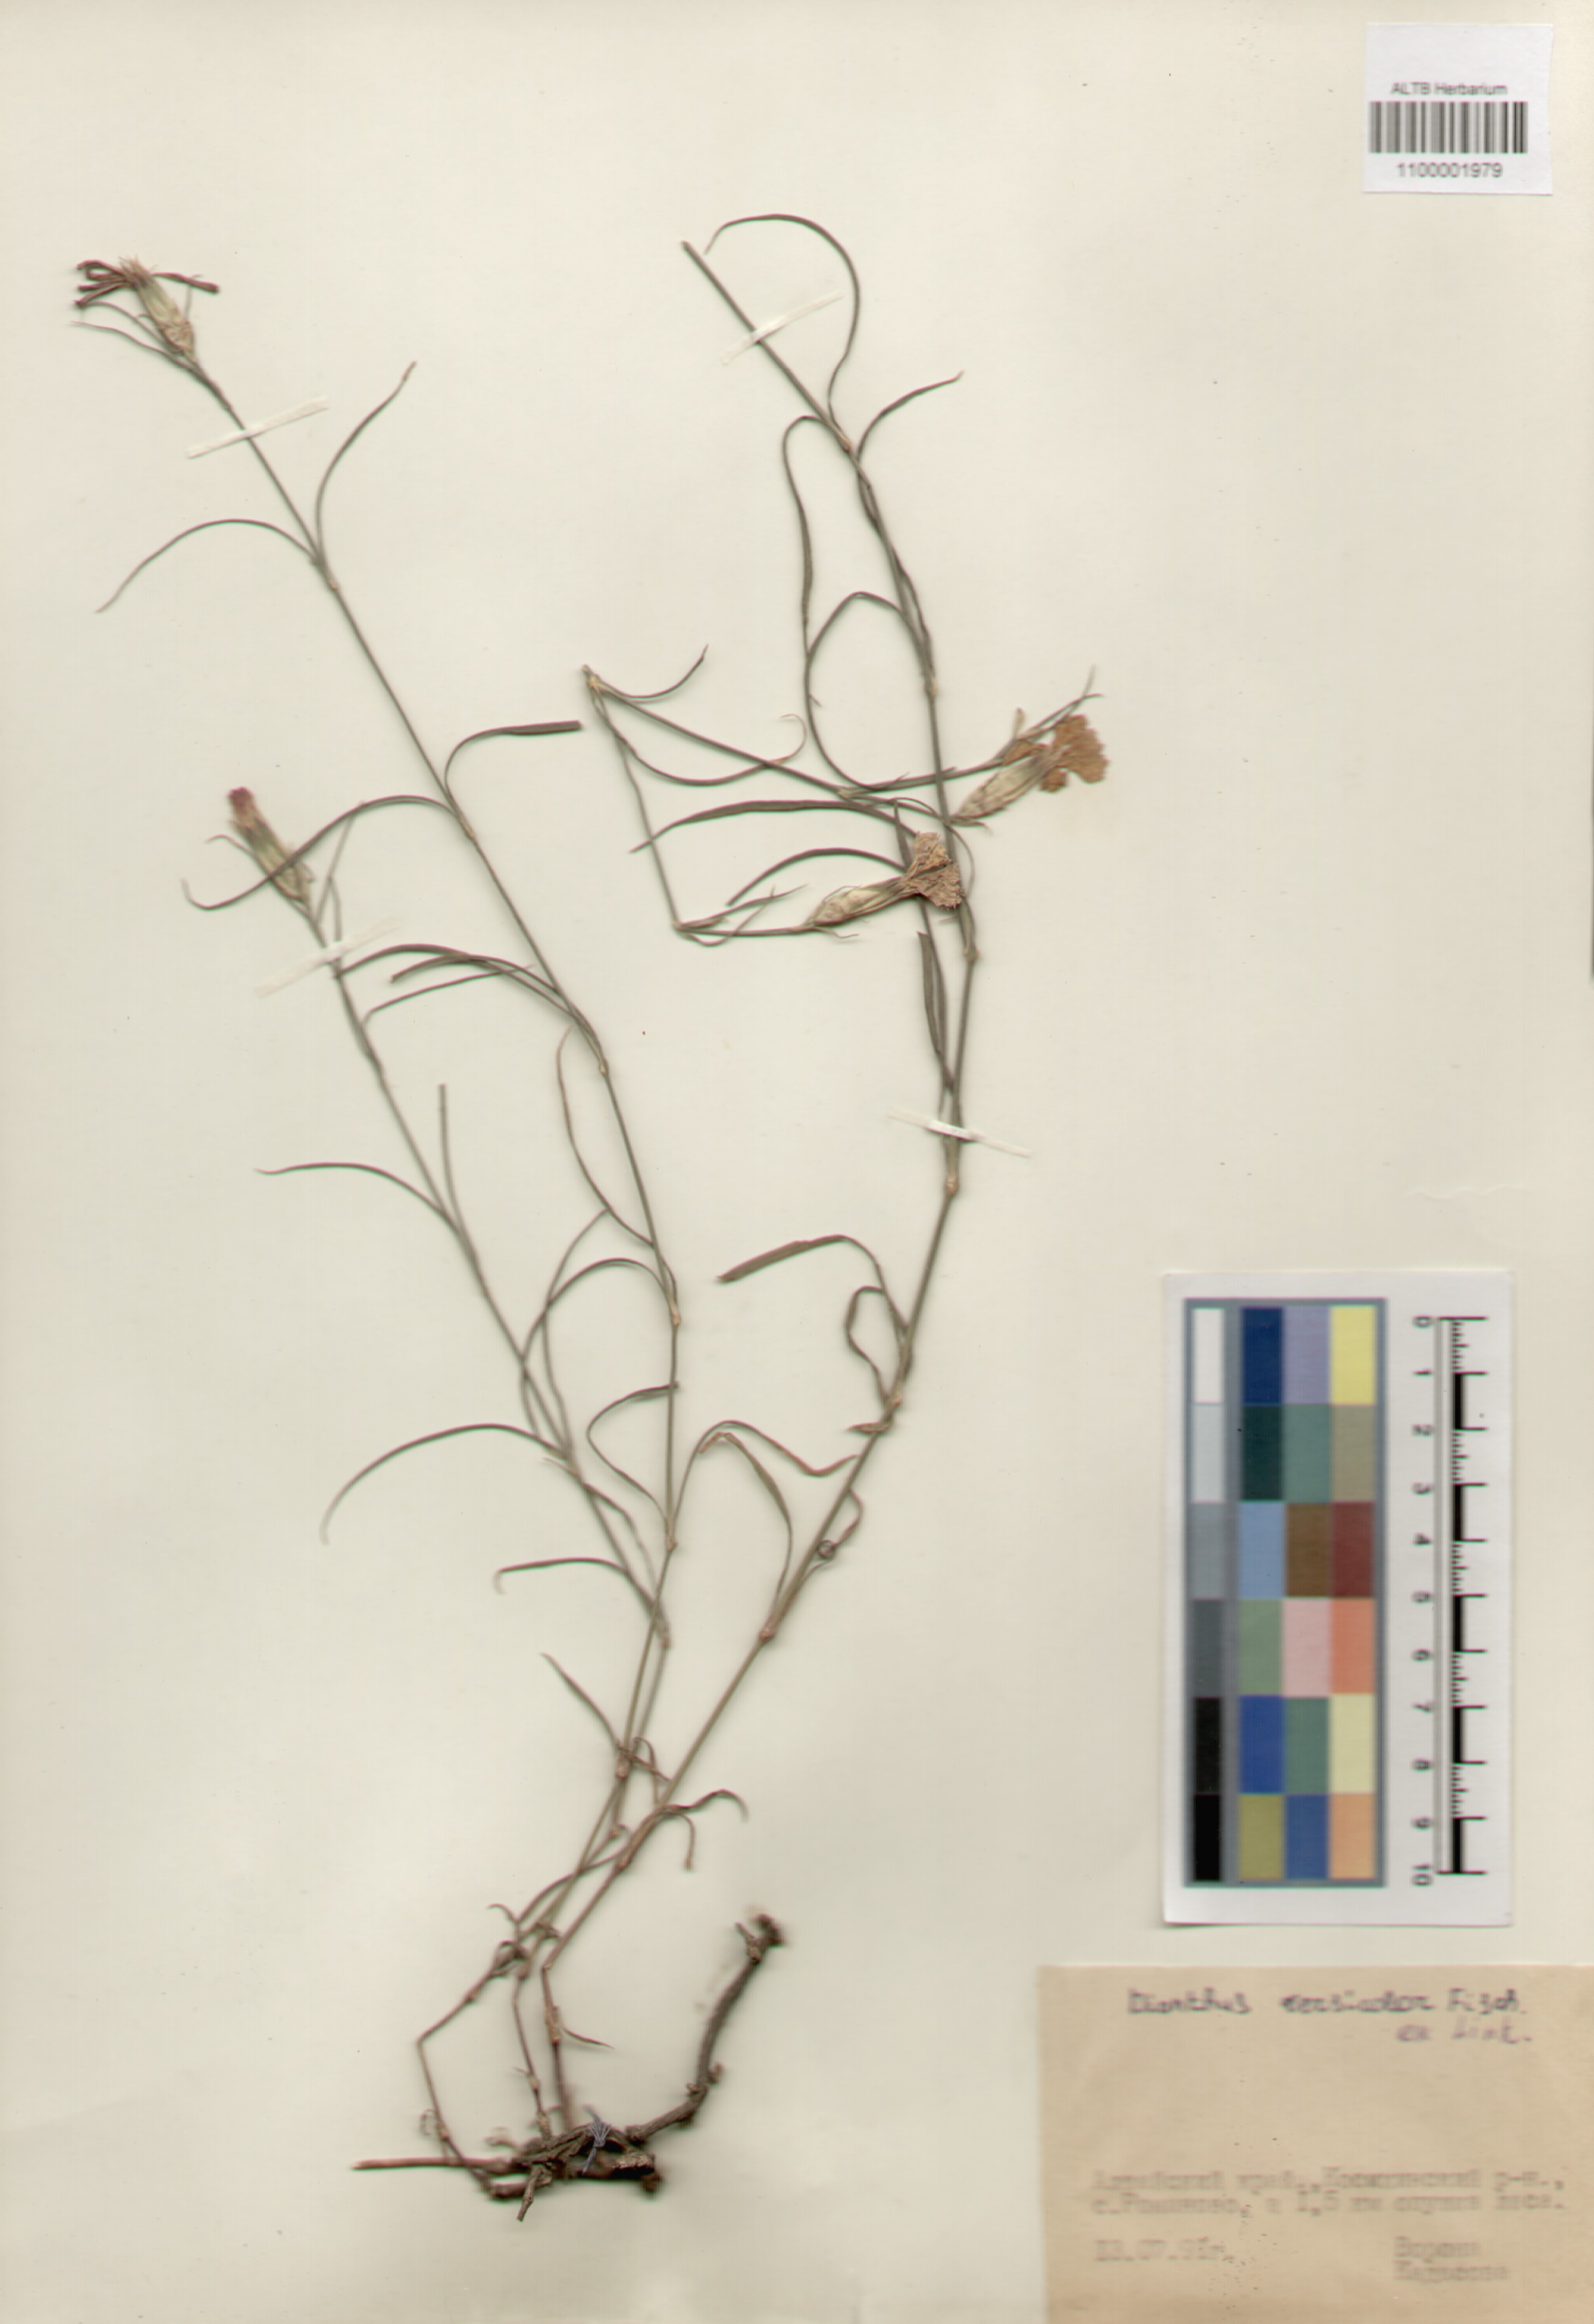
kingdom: Plantae
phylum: Tracheophyta
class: Magnoliopsida
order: Caryophyllales
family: Caryophyllaceae
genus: Dianthus
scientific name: Dianthus chinensis
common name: Rainbow pink
